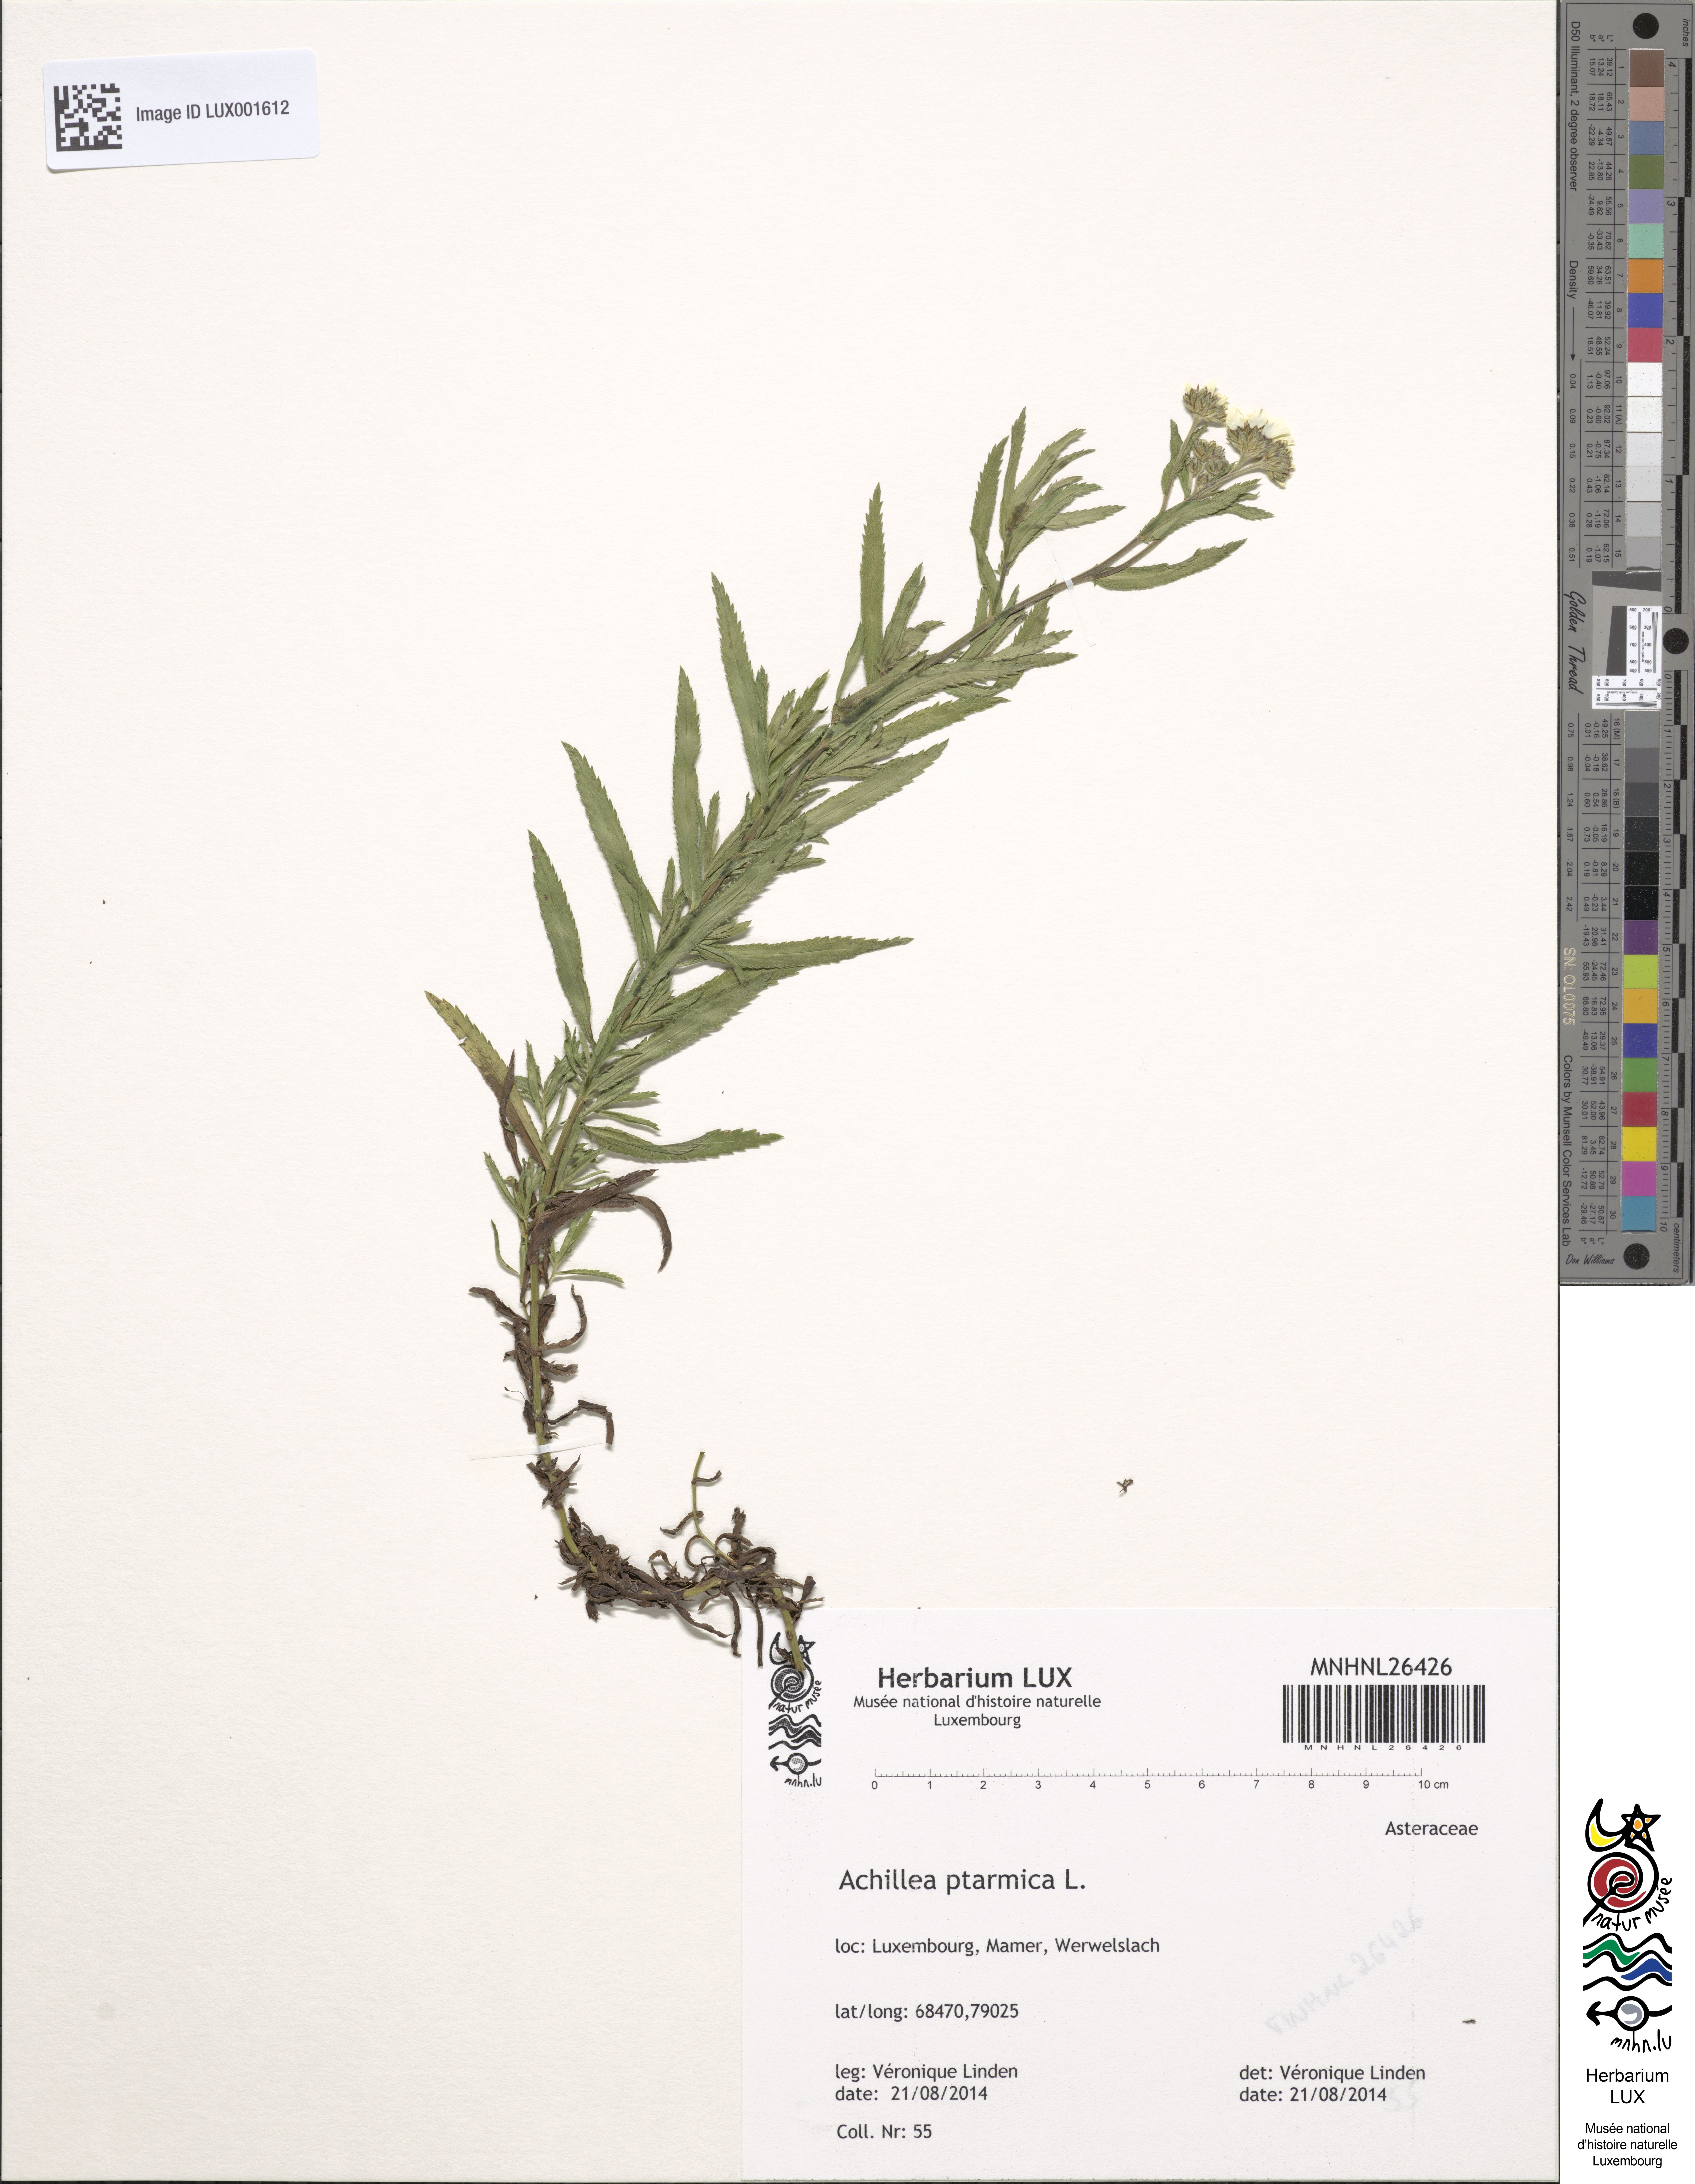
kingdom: Plantae
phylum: Tracheophyta
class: Magnoliopsida
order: Asterales
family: Asteraceae
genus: Achillea
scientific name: Achillea ptarmica
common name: Sneezeweed
